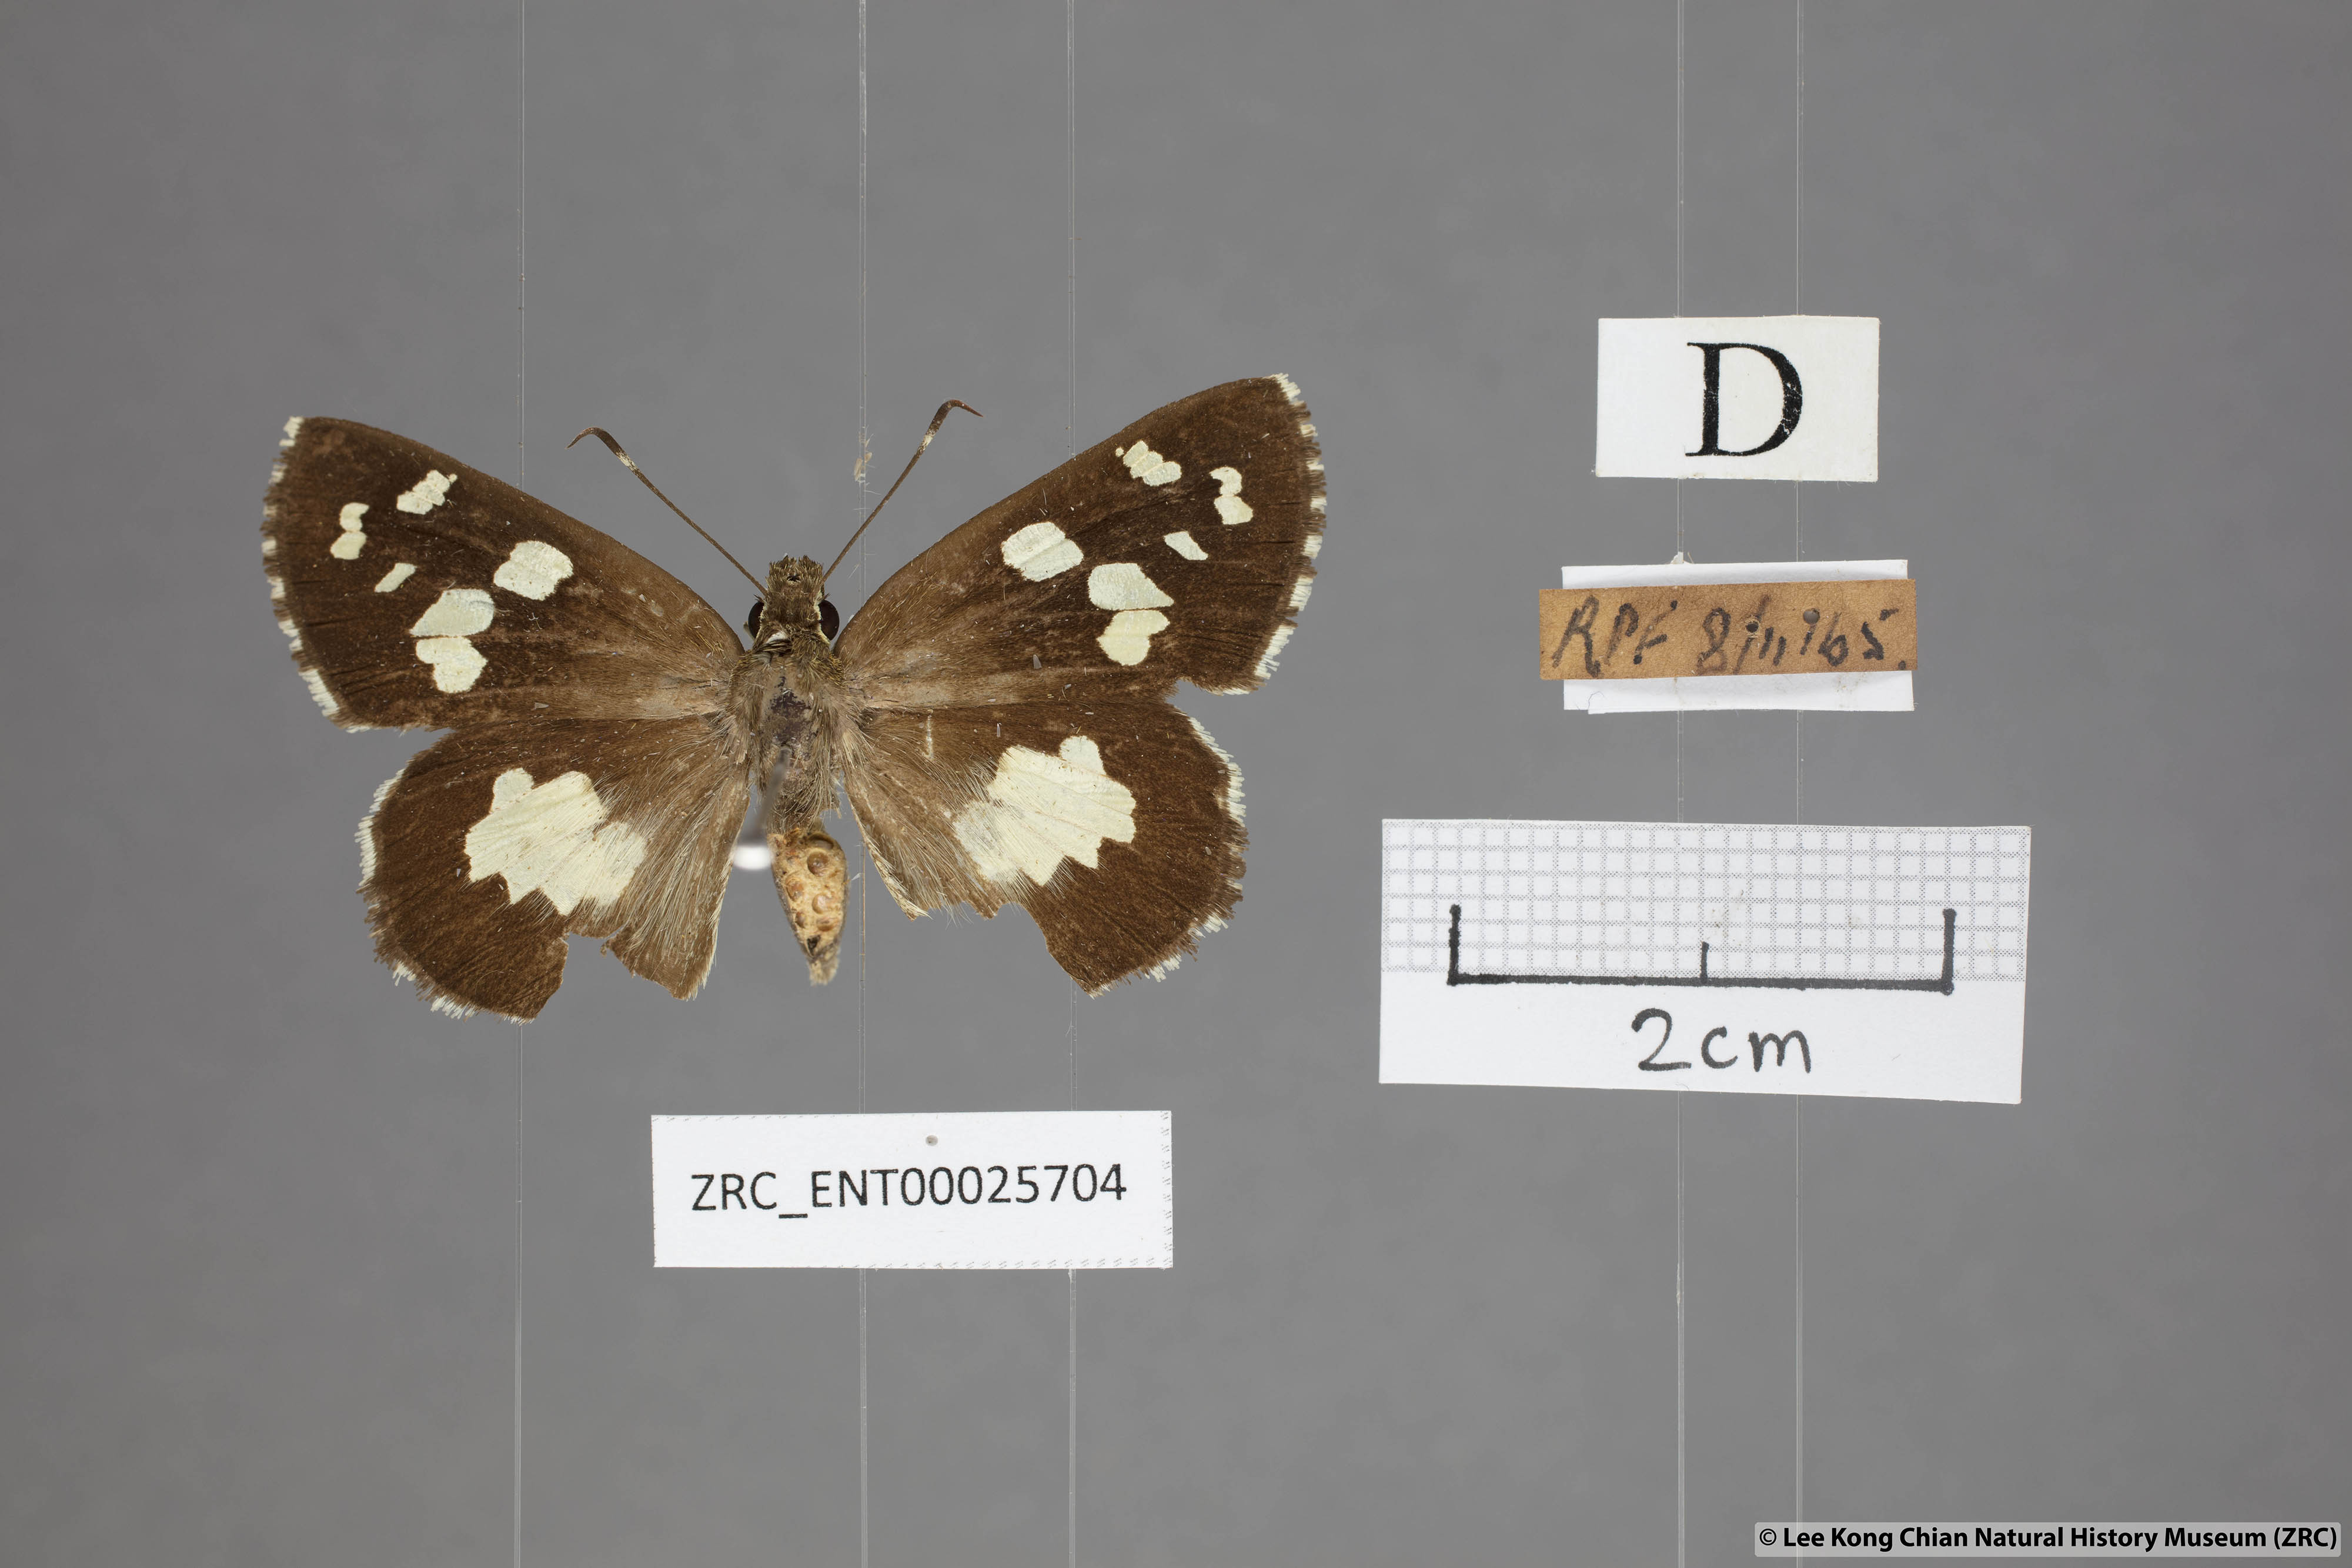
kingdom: Animalia
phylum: Arthropoda
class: Insecta
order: Lepidoptera
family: Hesperiidae
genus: Udaspes
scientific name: Udaspes folus
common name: Grass demon
